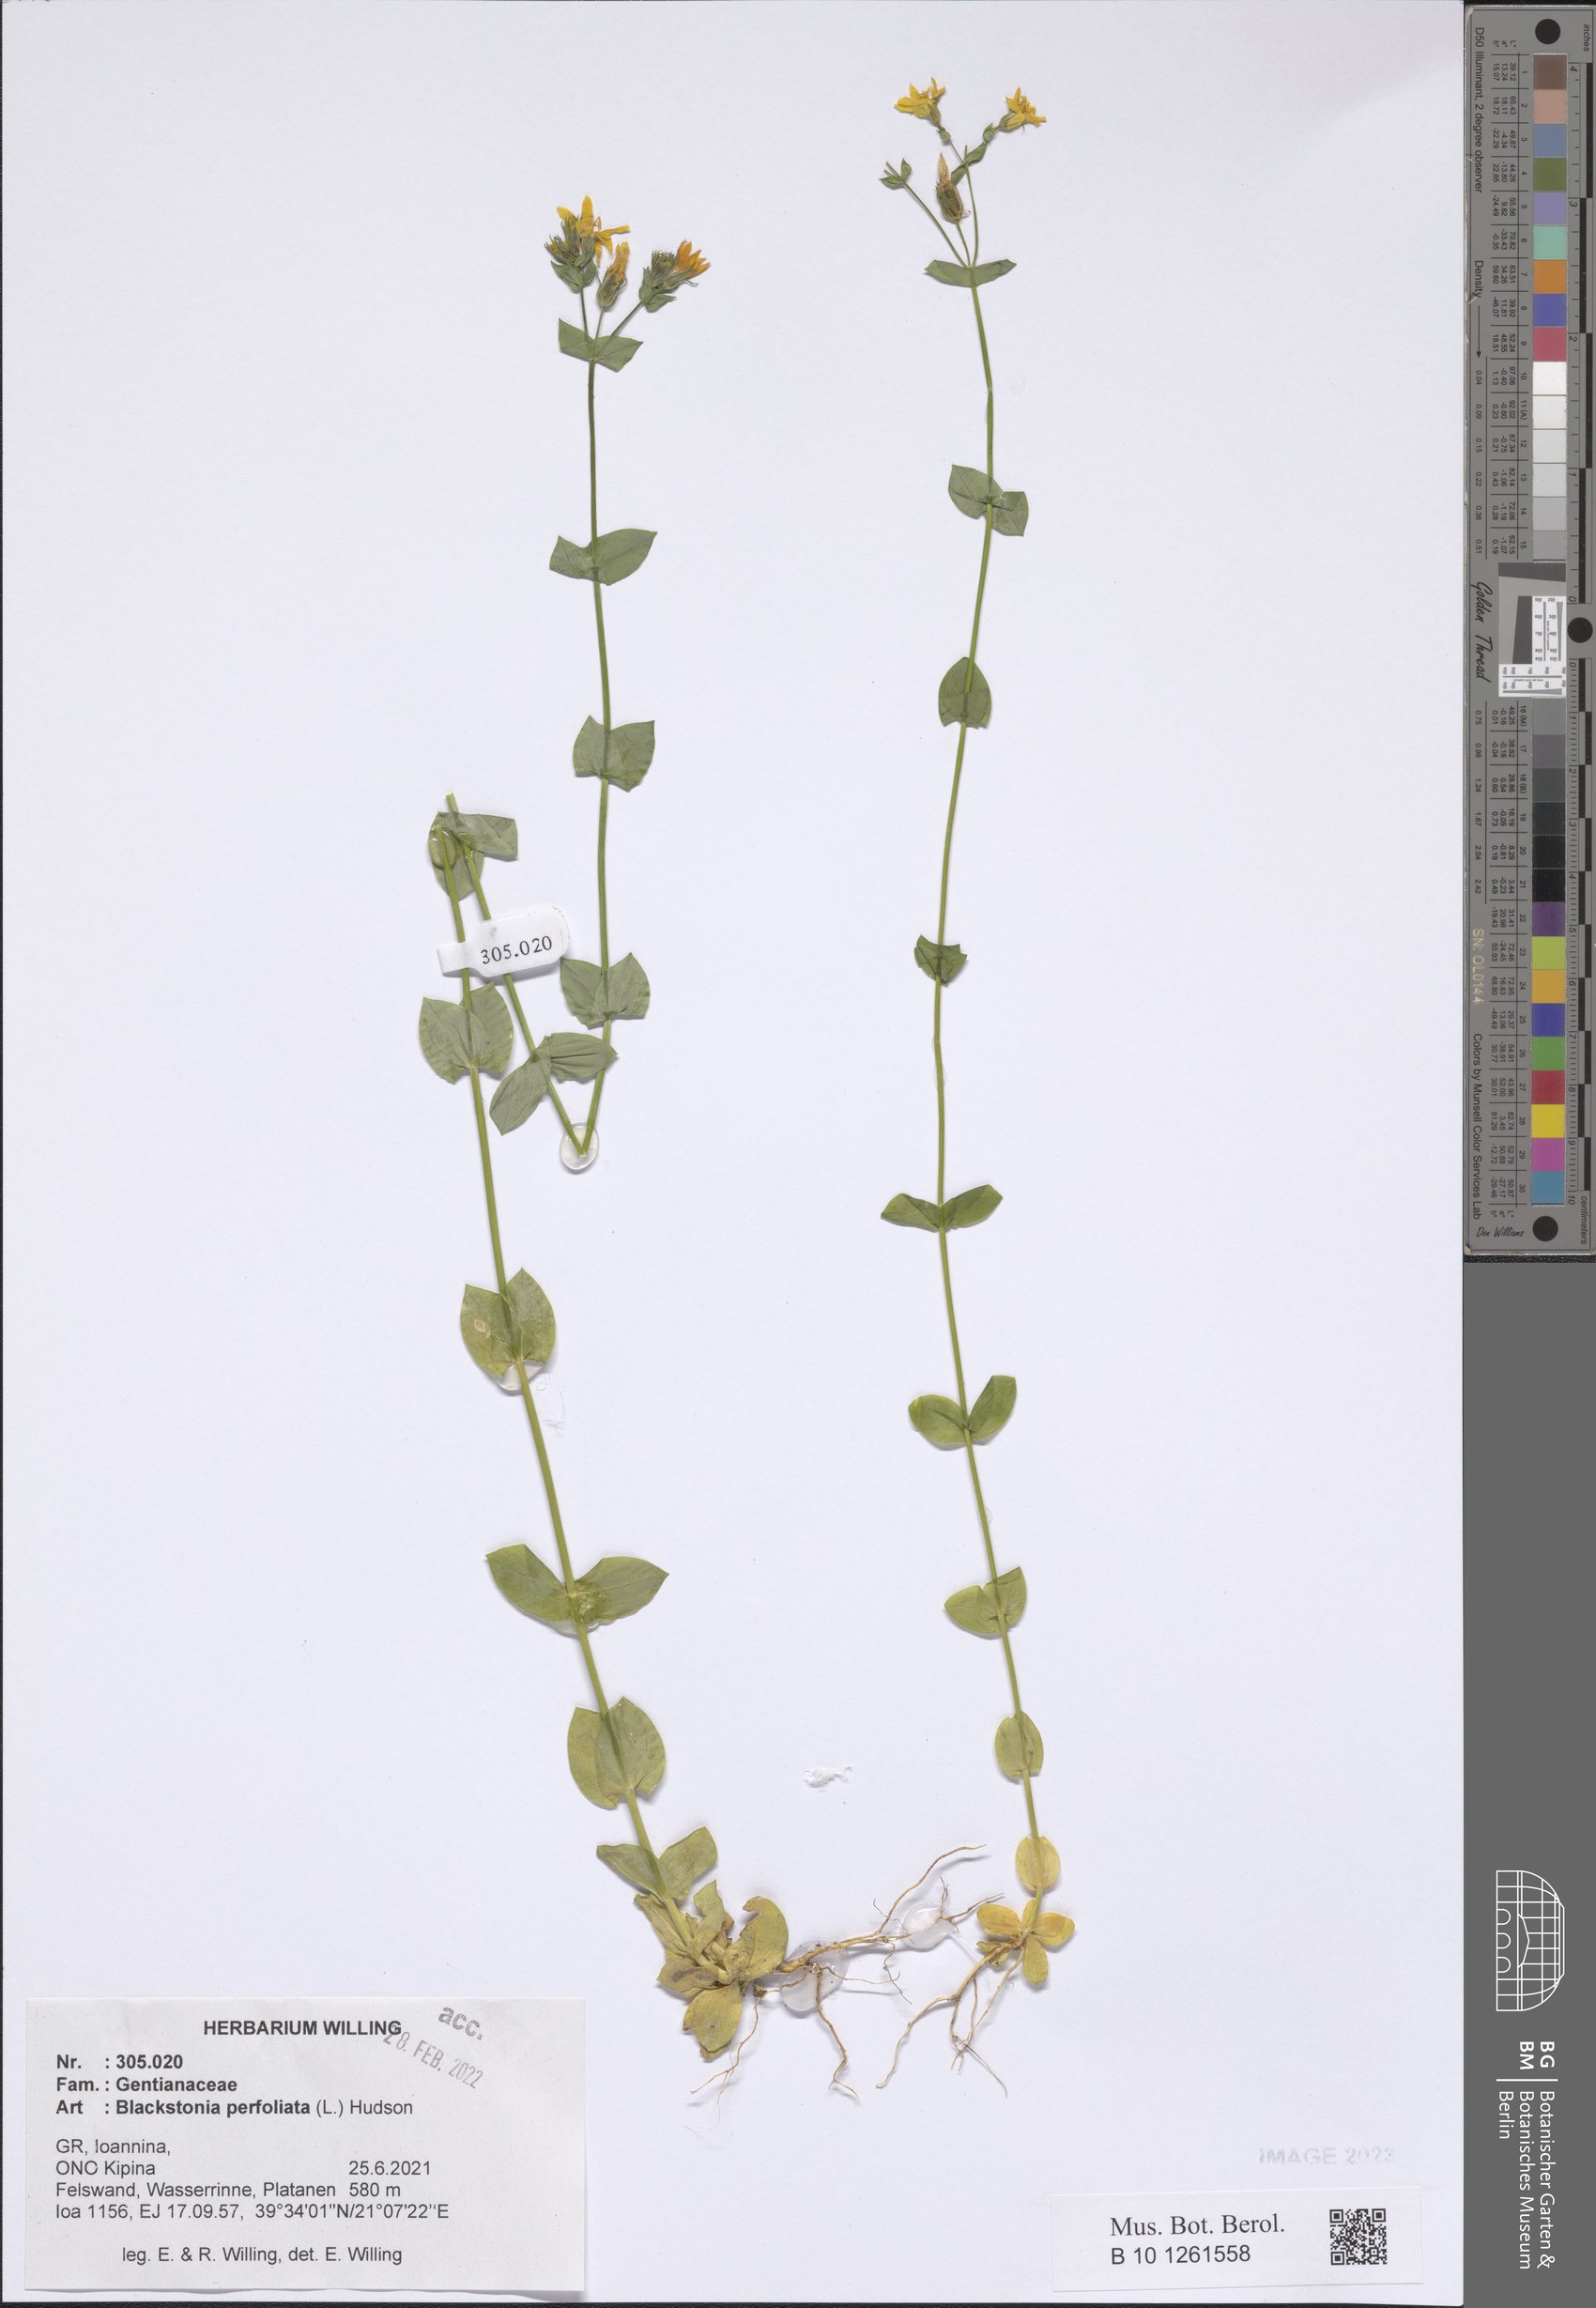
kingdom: Plantae
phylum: Tracheophyta
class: Magnoliopsida
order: Gentianales
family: Gentianaceae
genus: Blackstonia
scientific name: Blackstonia perfoliata
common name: Yellow-wort
